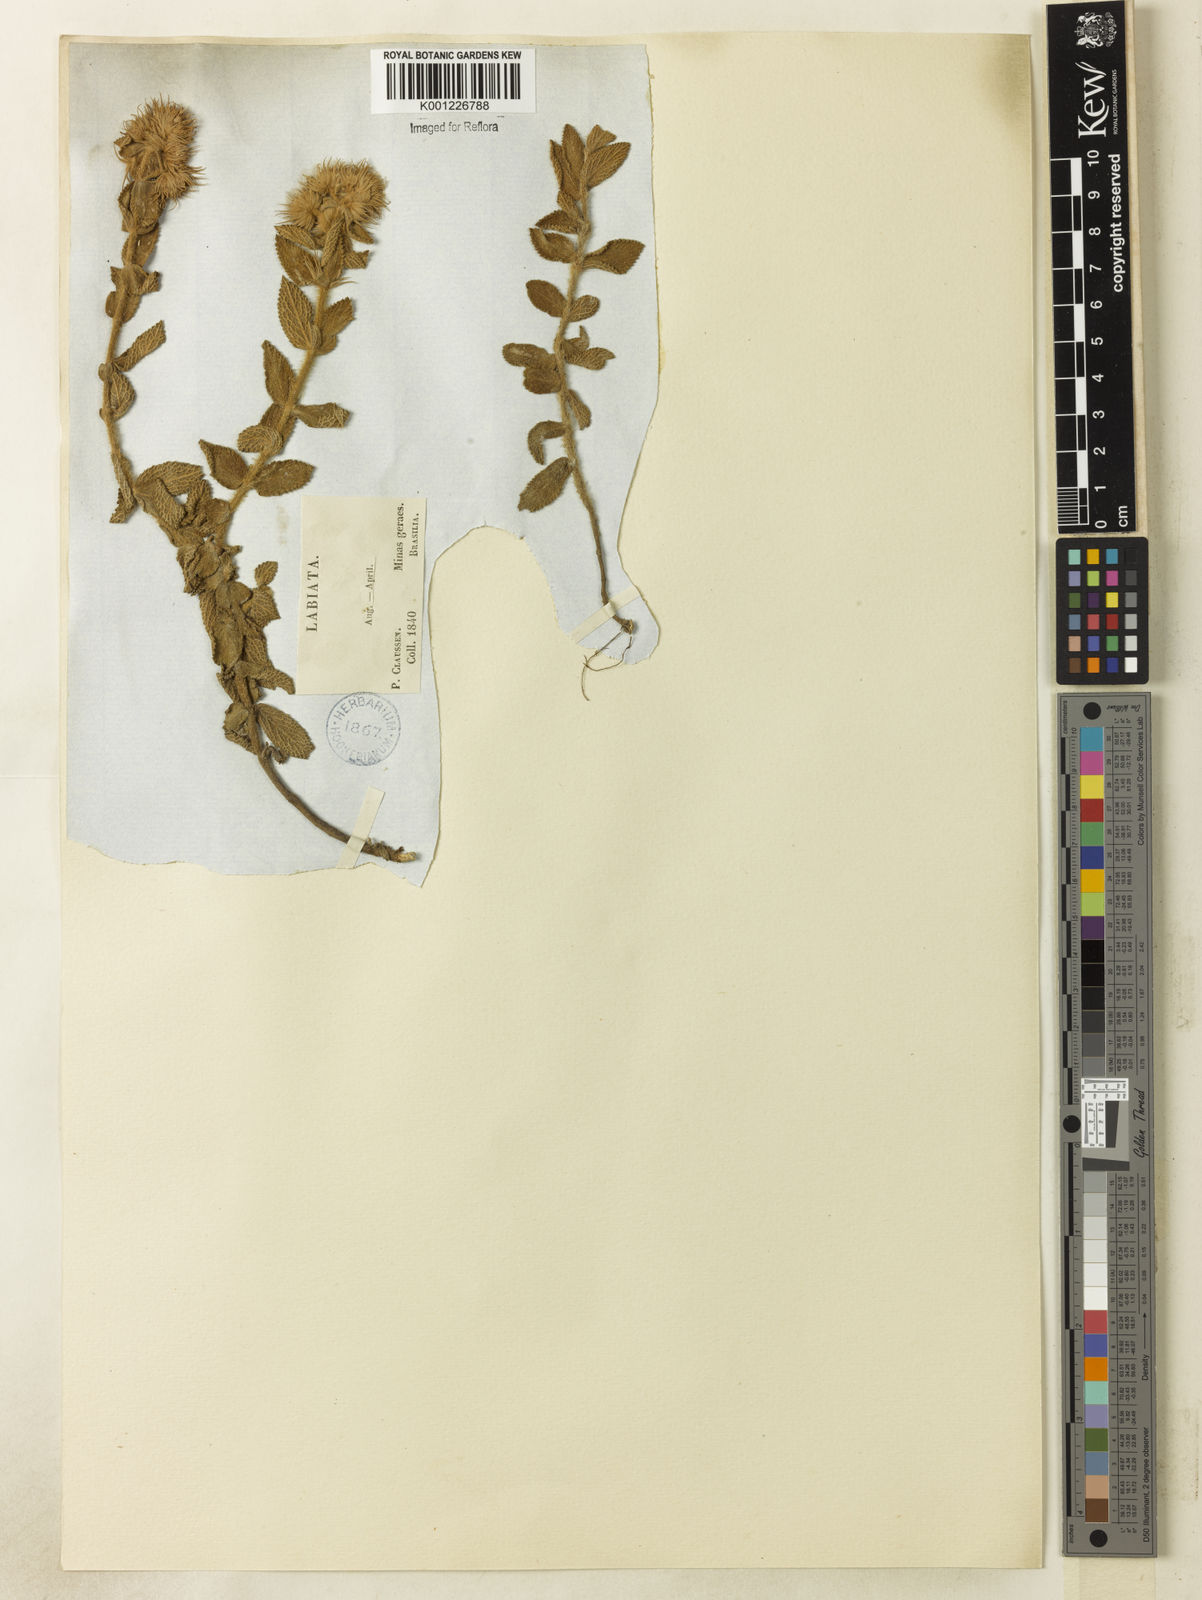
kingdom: Plantae
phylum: Tracheophyta
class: Magnoliopsida
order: Lamiales
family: Lamiaceae
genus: Hyptis
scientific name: Hyptis crenata
